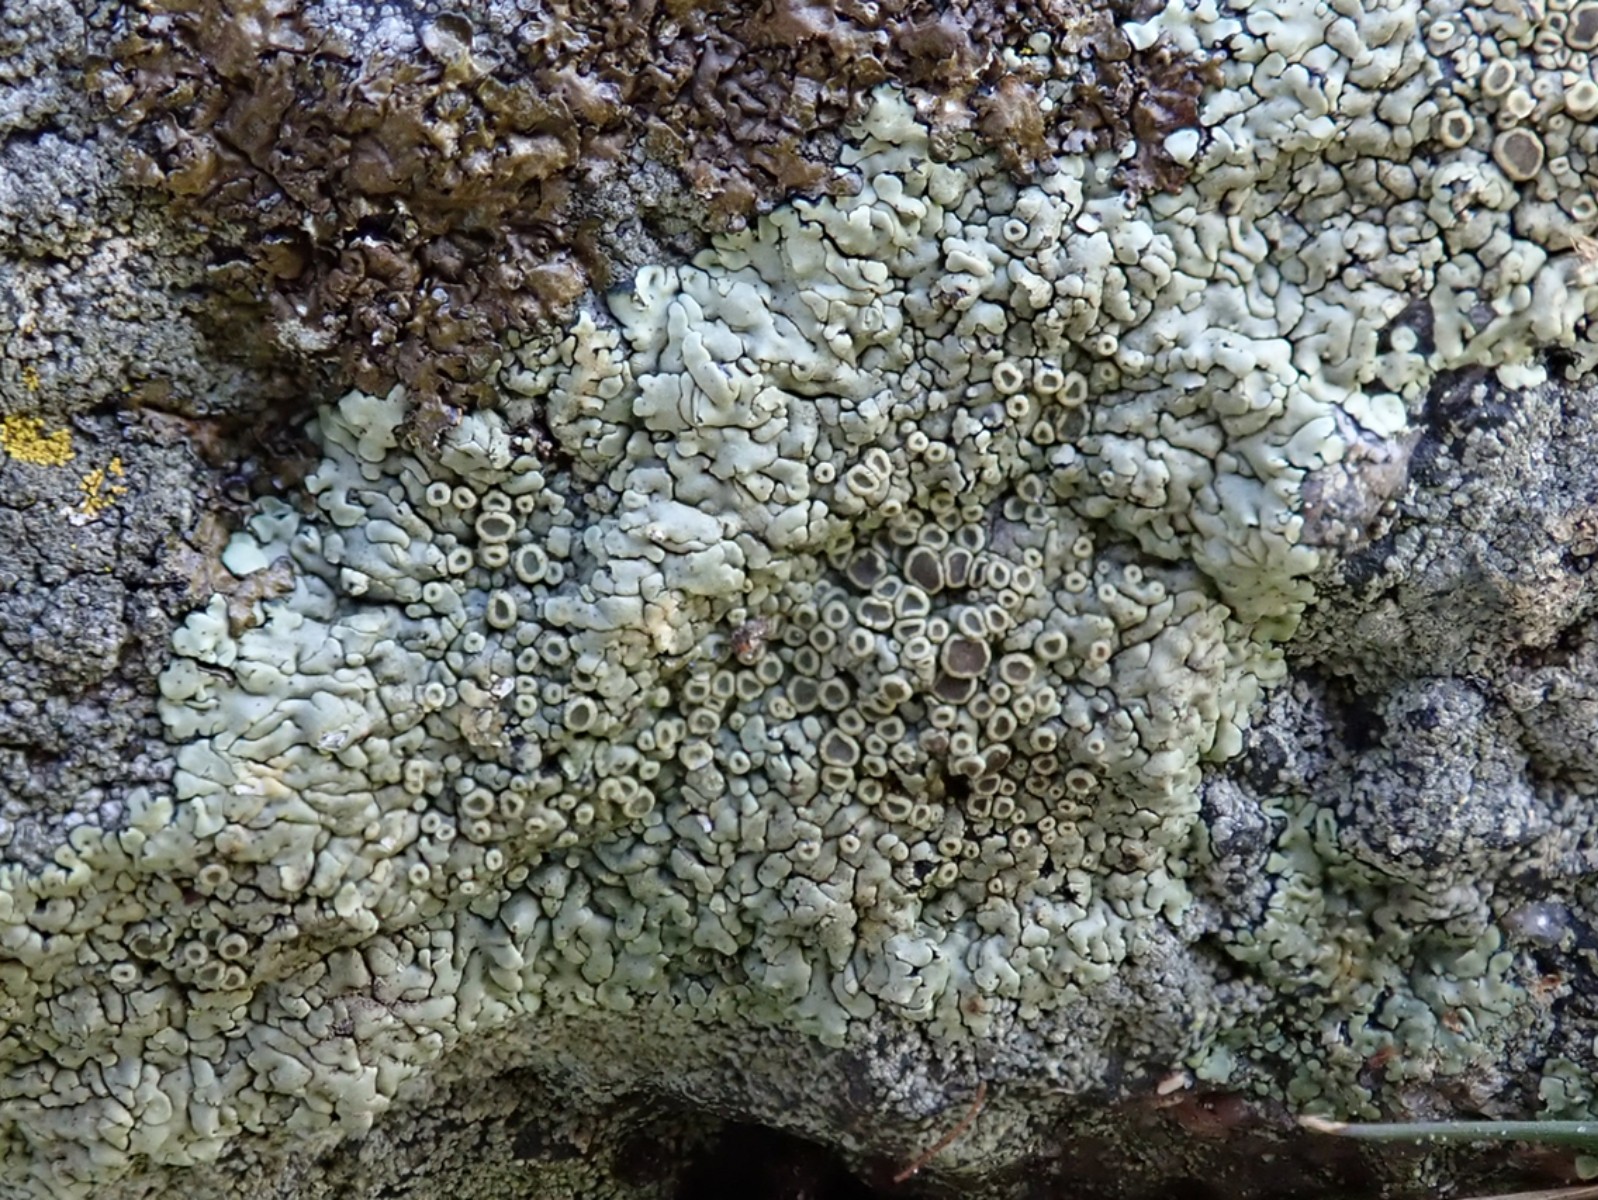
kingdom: Fungi
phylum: Ascomycota
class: Lecanoromycetes
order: Lecanorales
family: Lecanoraceae
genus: Protoparmeliopsis
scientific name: Protoparmeliopsis muralis
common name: randfliget kantskivelav
